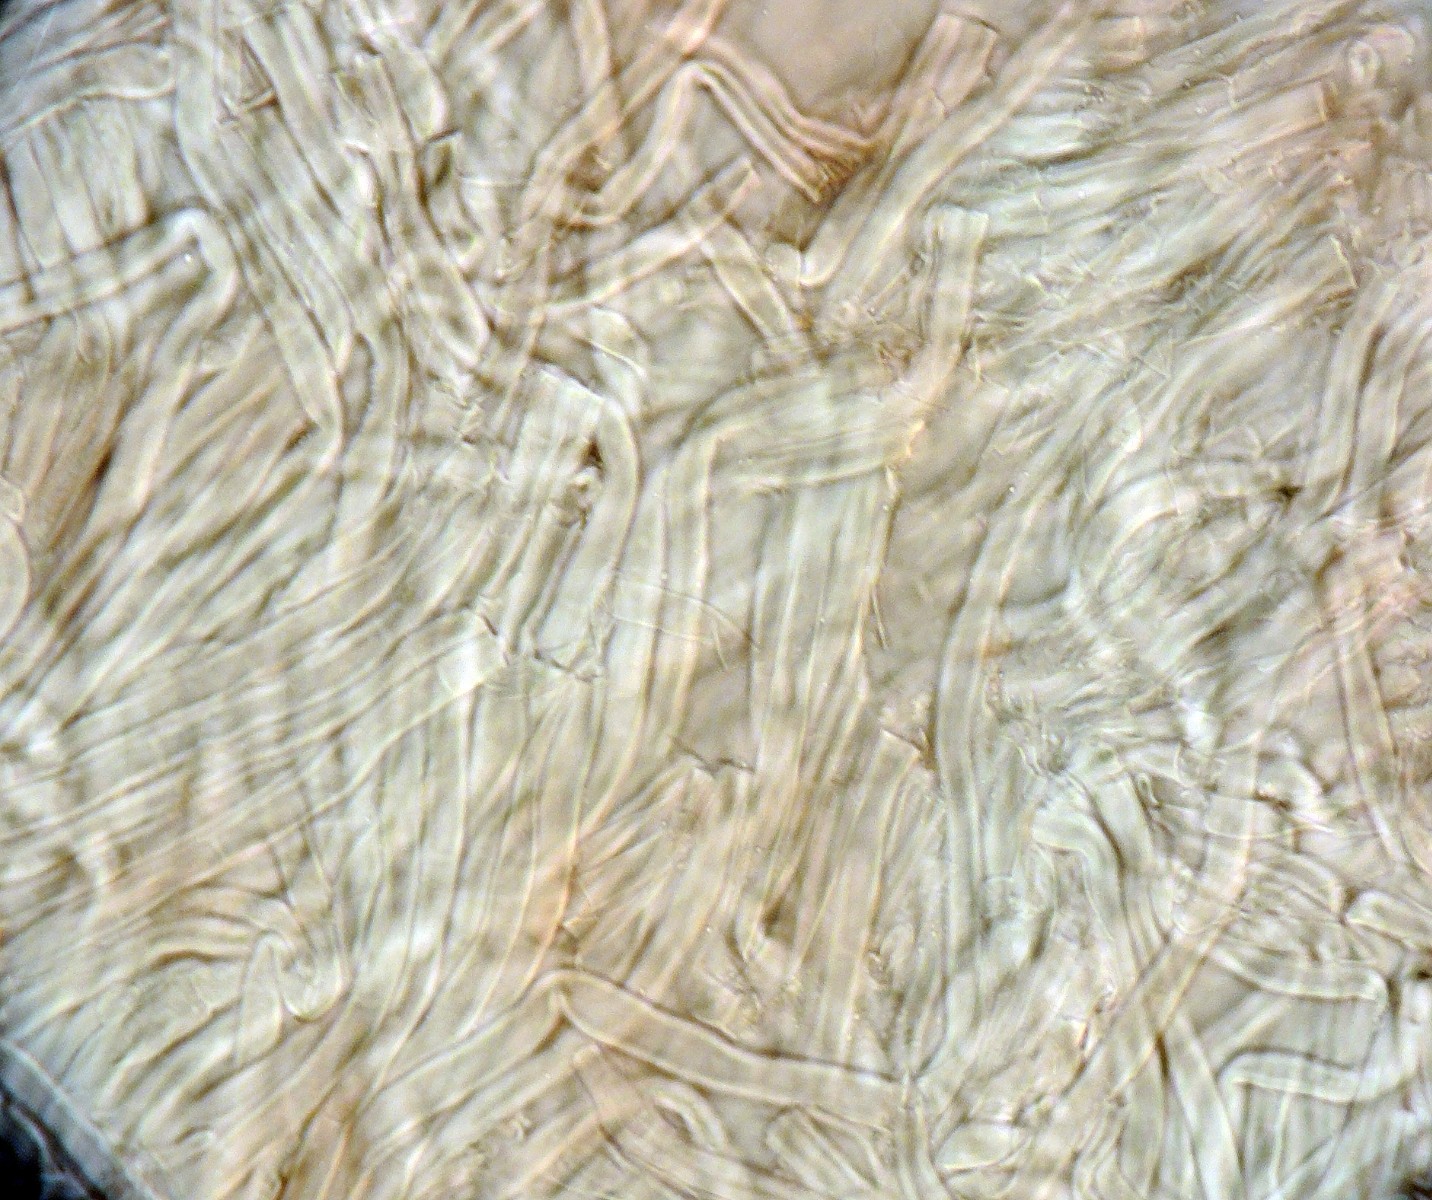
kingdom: Fungi
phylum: Basidiomycota
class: Agaricomycetes
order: Polyporales
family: Polyporaceae
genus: Diplomitoporus
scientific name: Diplomitoporus flavescens
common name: fyrre-elastikporesvamp
